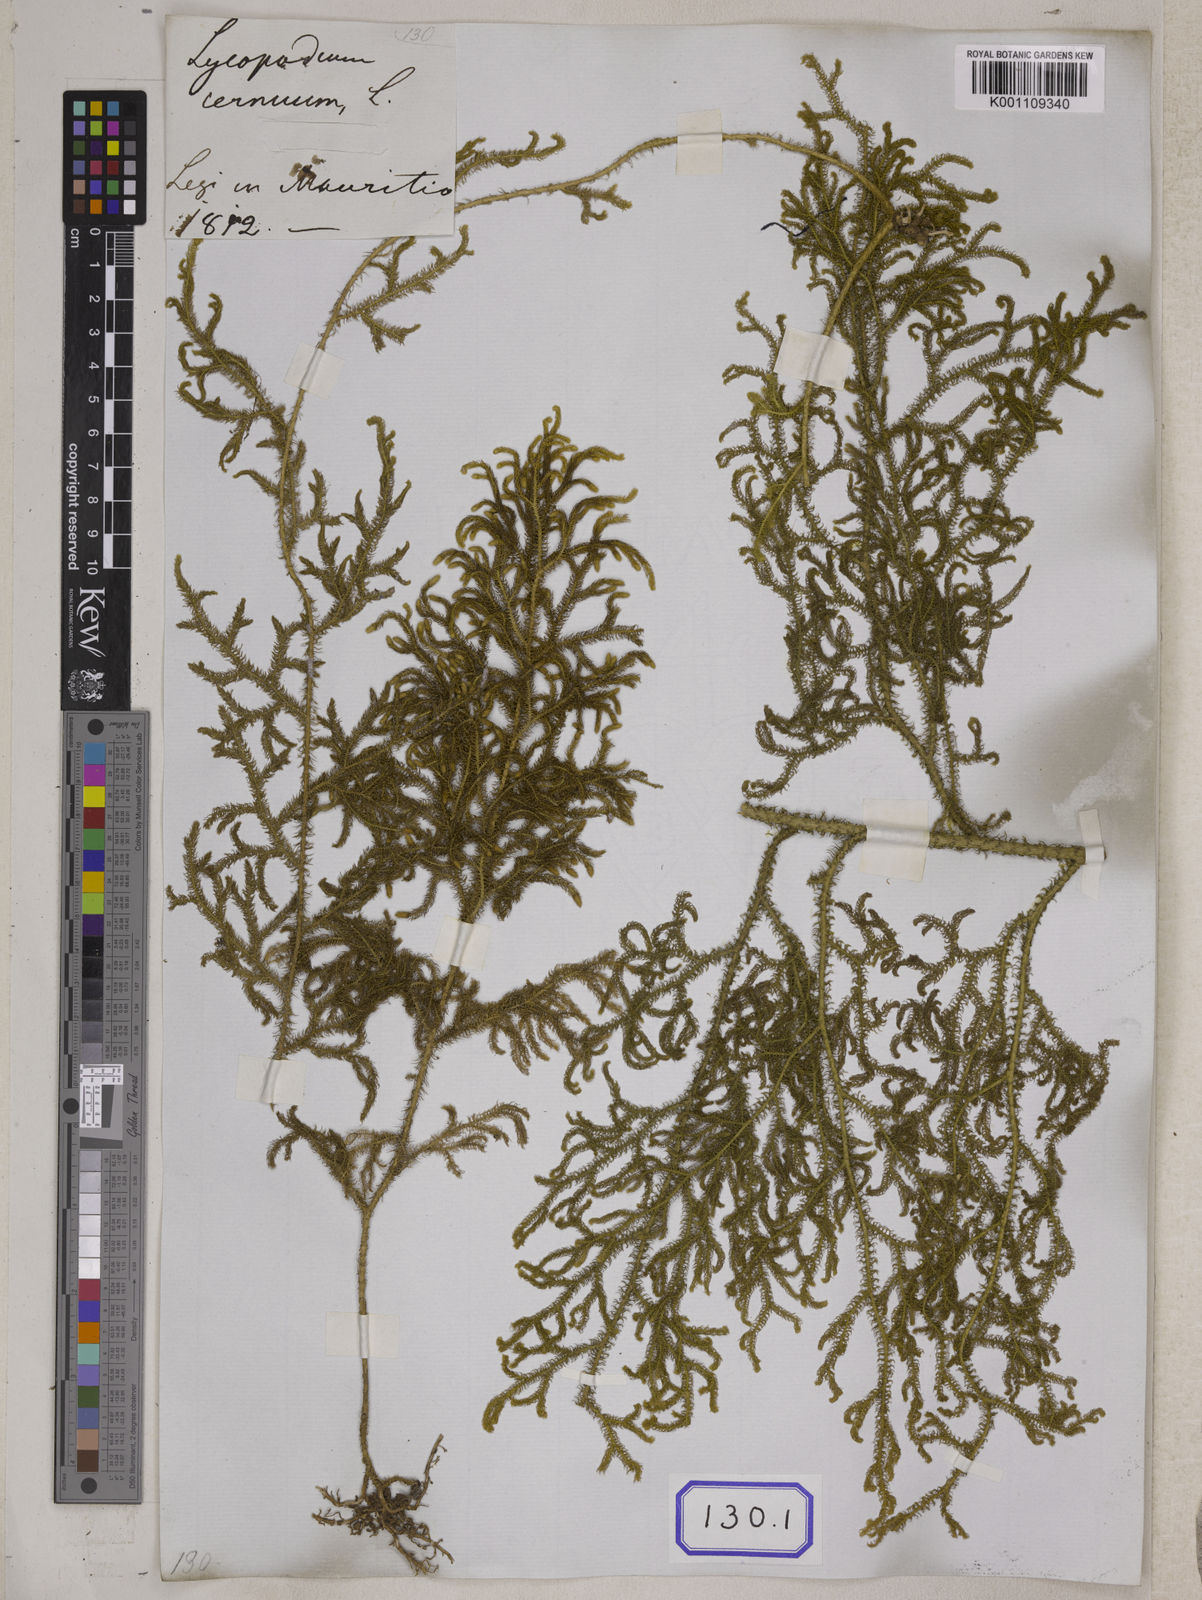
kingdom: Plantae
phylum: Tracheophyta
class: Lycopodiopsida
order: Lycopodiales
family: Lycopodiaceae
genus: Palhinhaea
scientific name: Palhinhaea cernua
